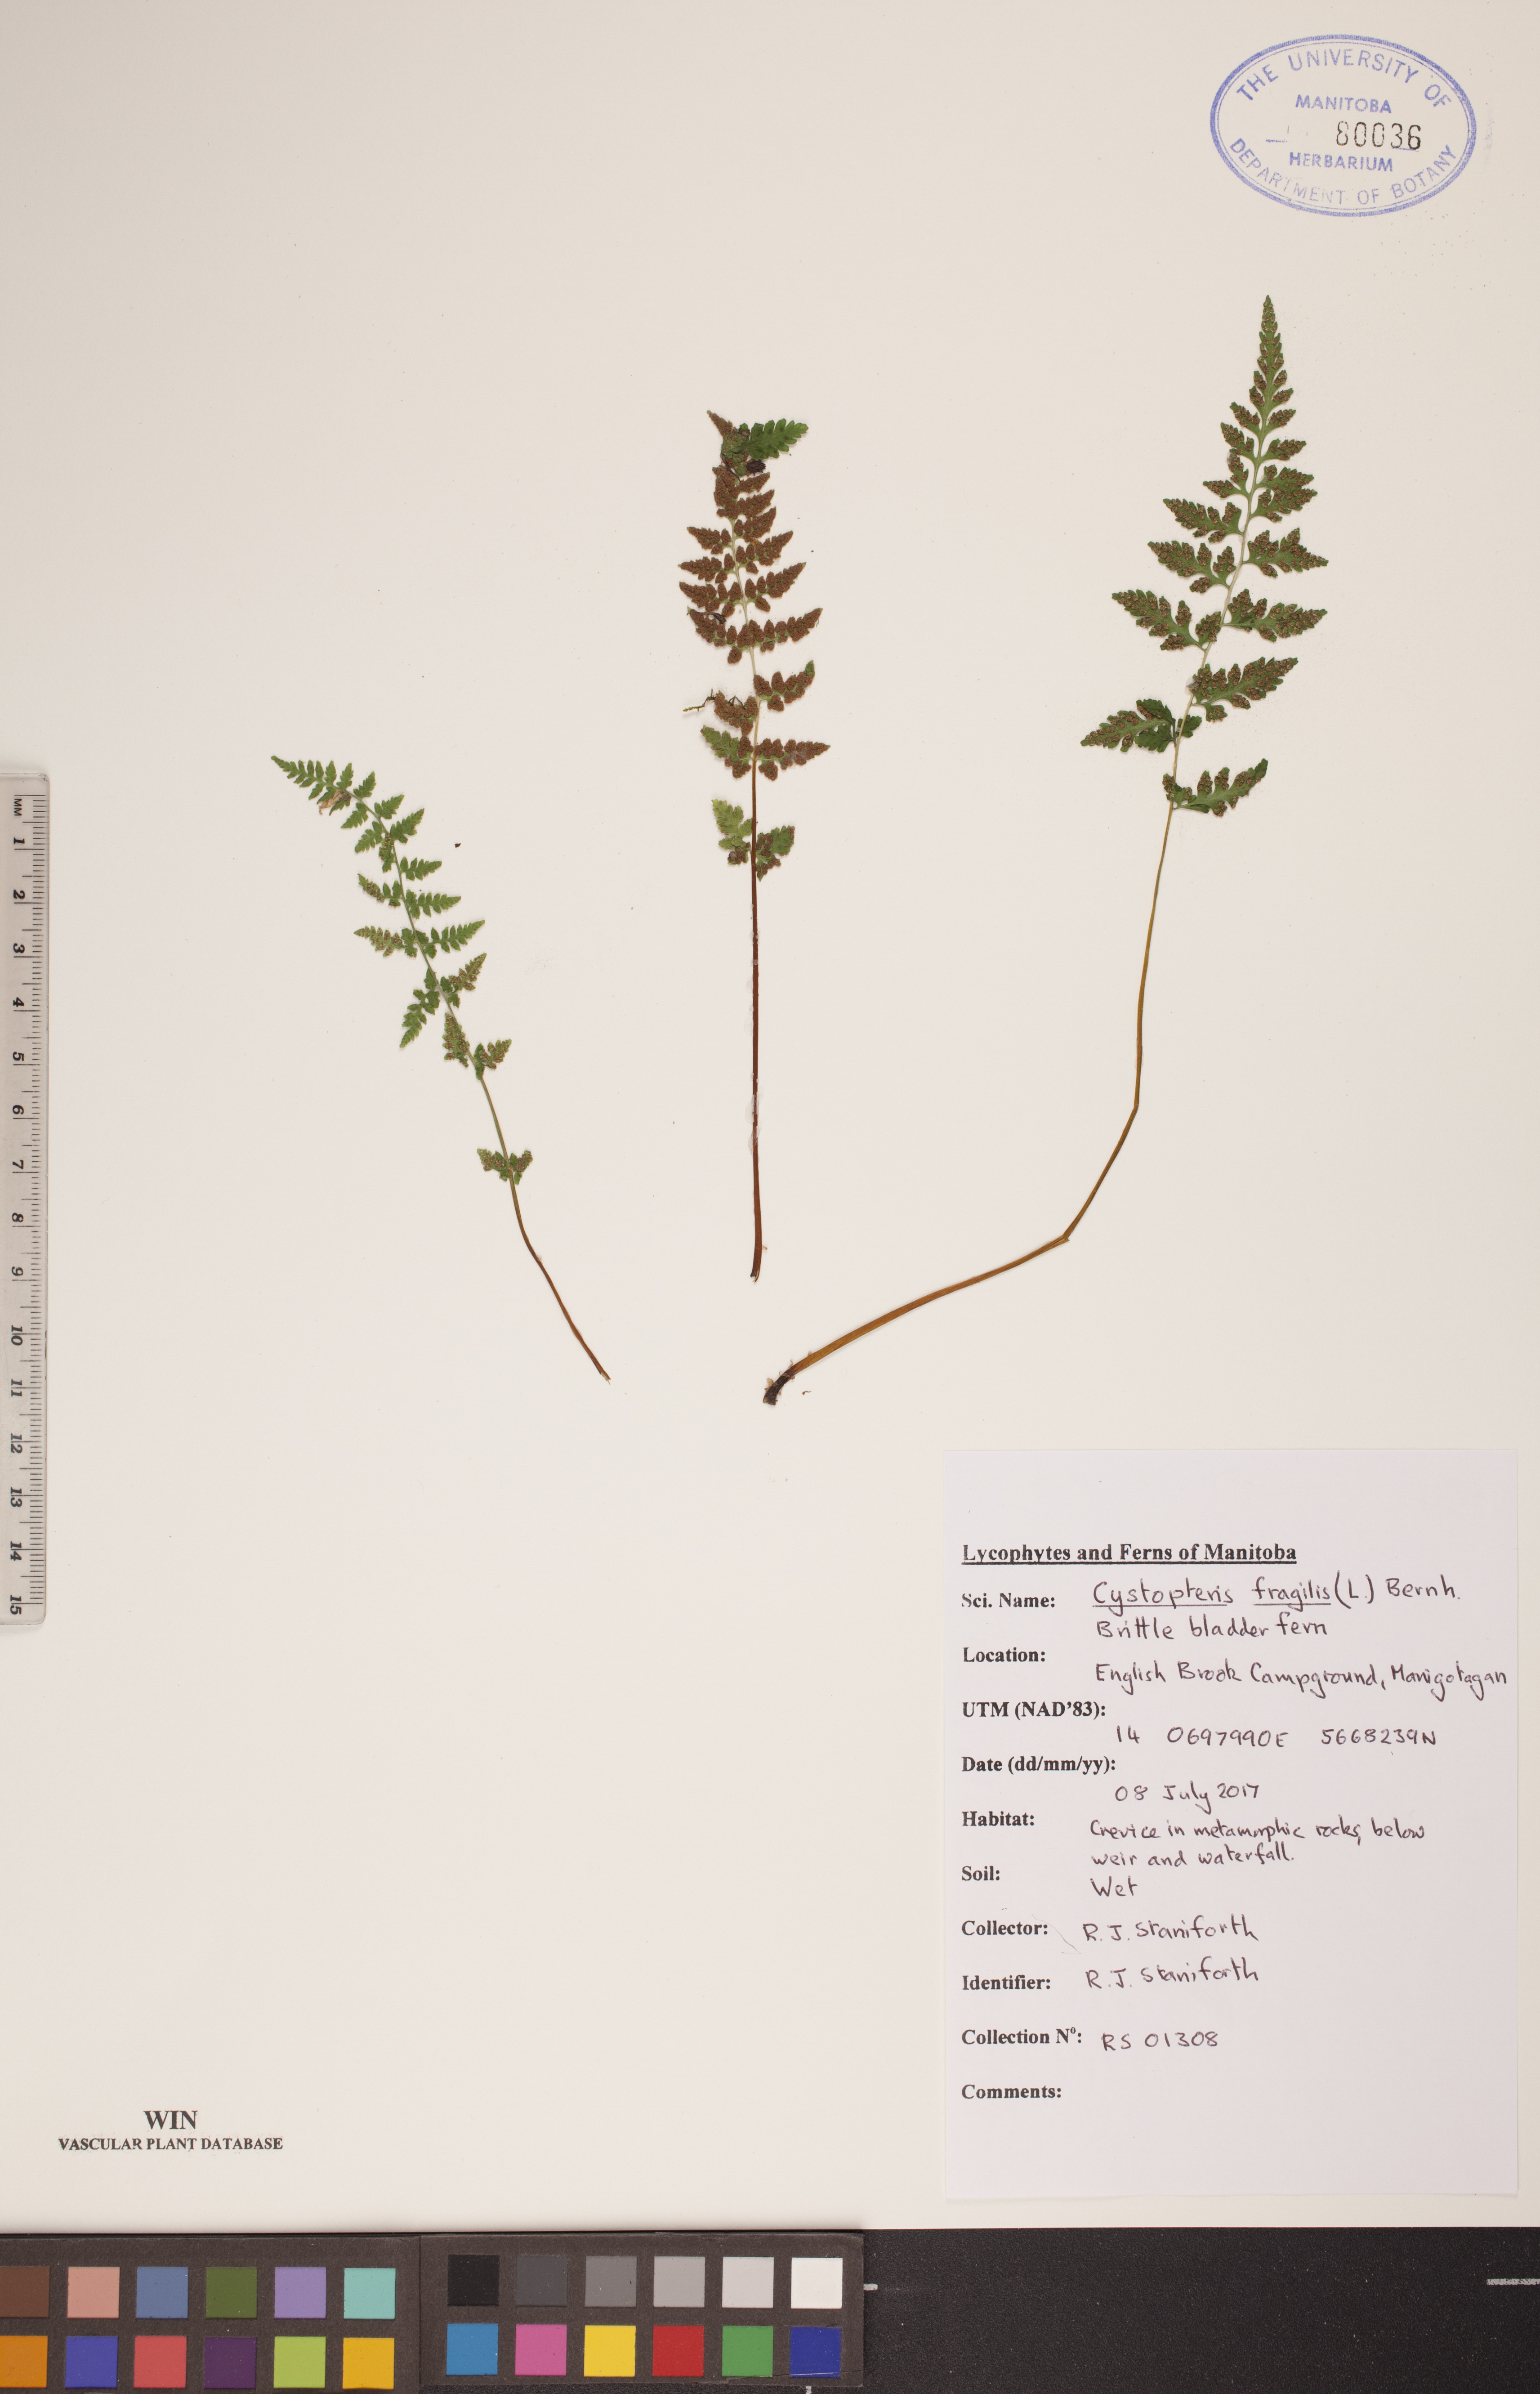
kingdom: Plantae
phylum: Tracheophyta
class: Polypodiopsida
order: Polypodiales
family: Cystopteridaceae
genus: Cystopteris
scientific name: Cystopteris fragilis
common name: Brittle bladder fern
